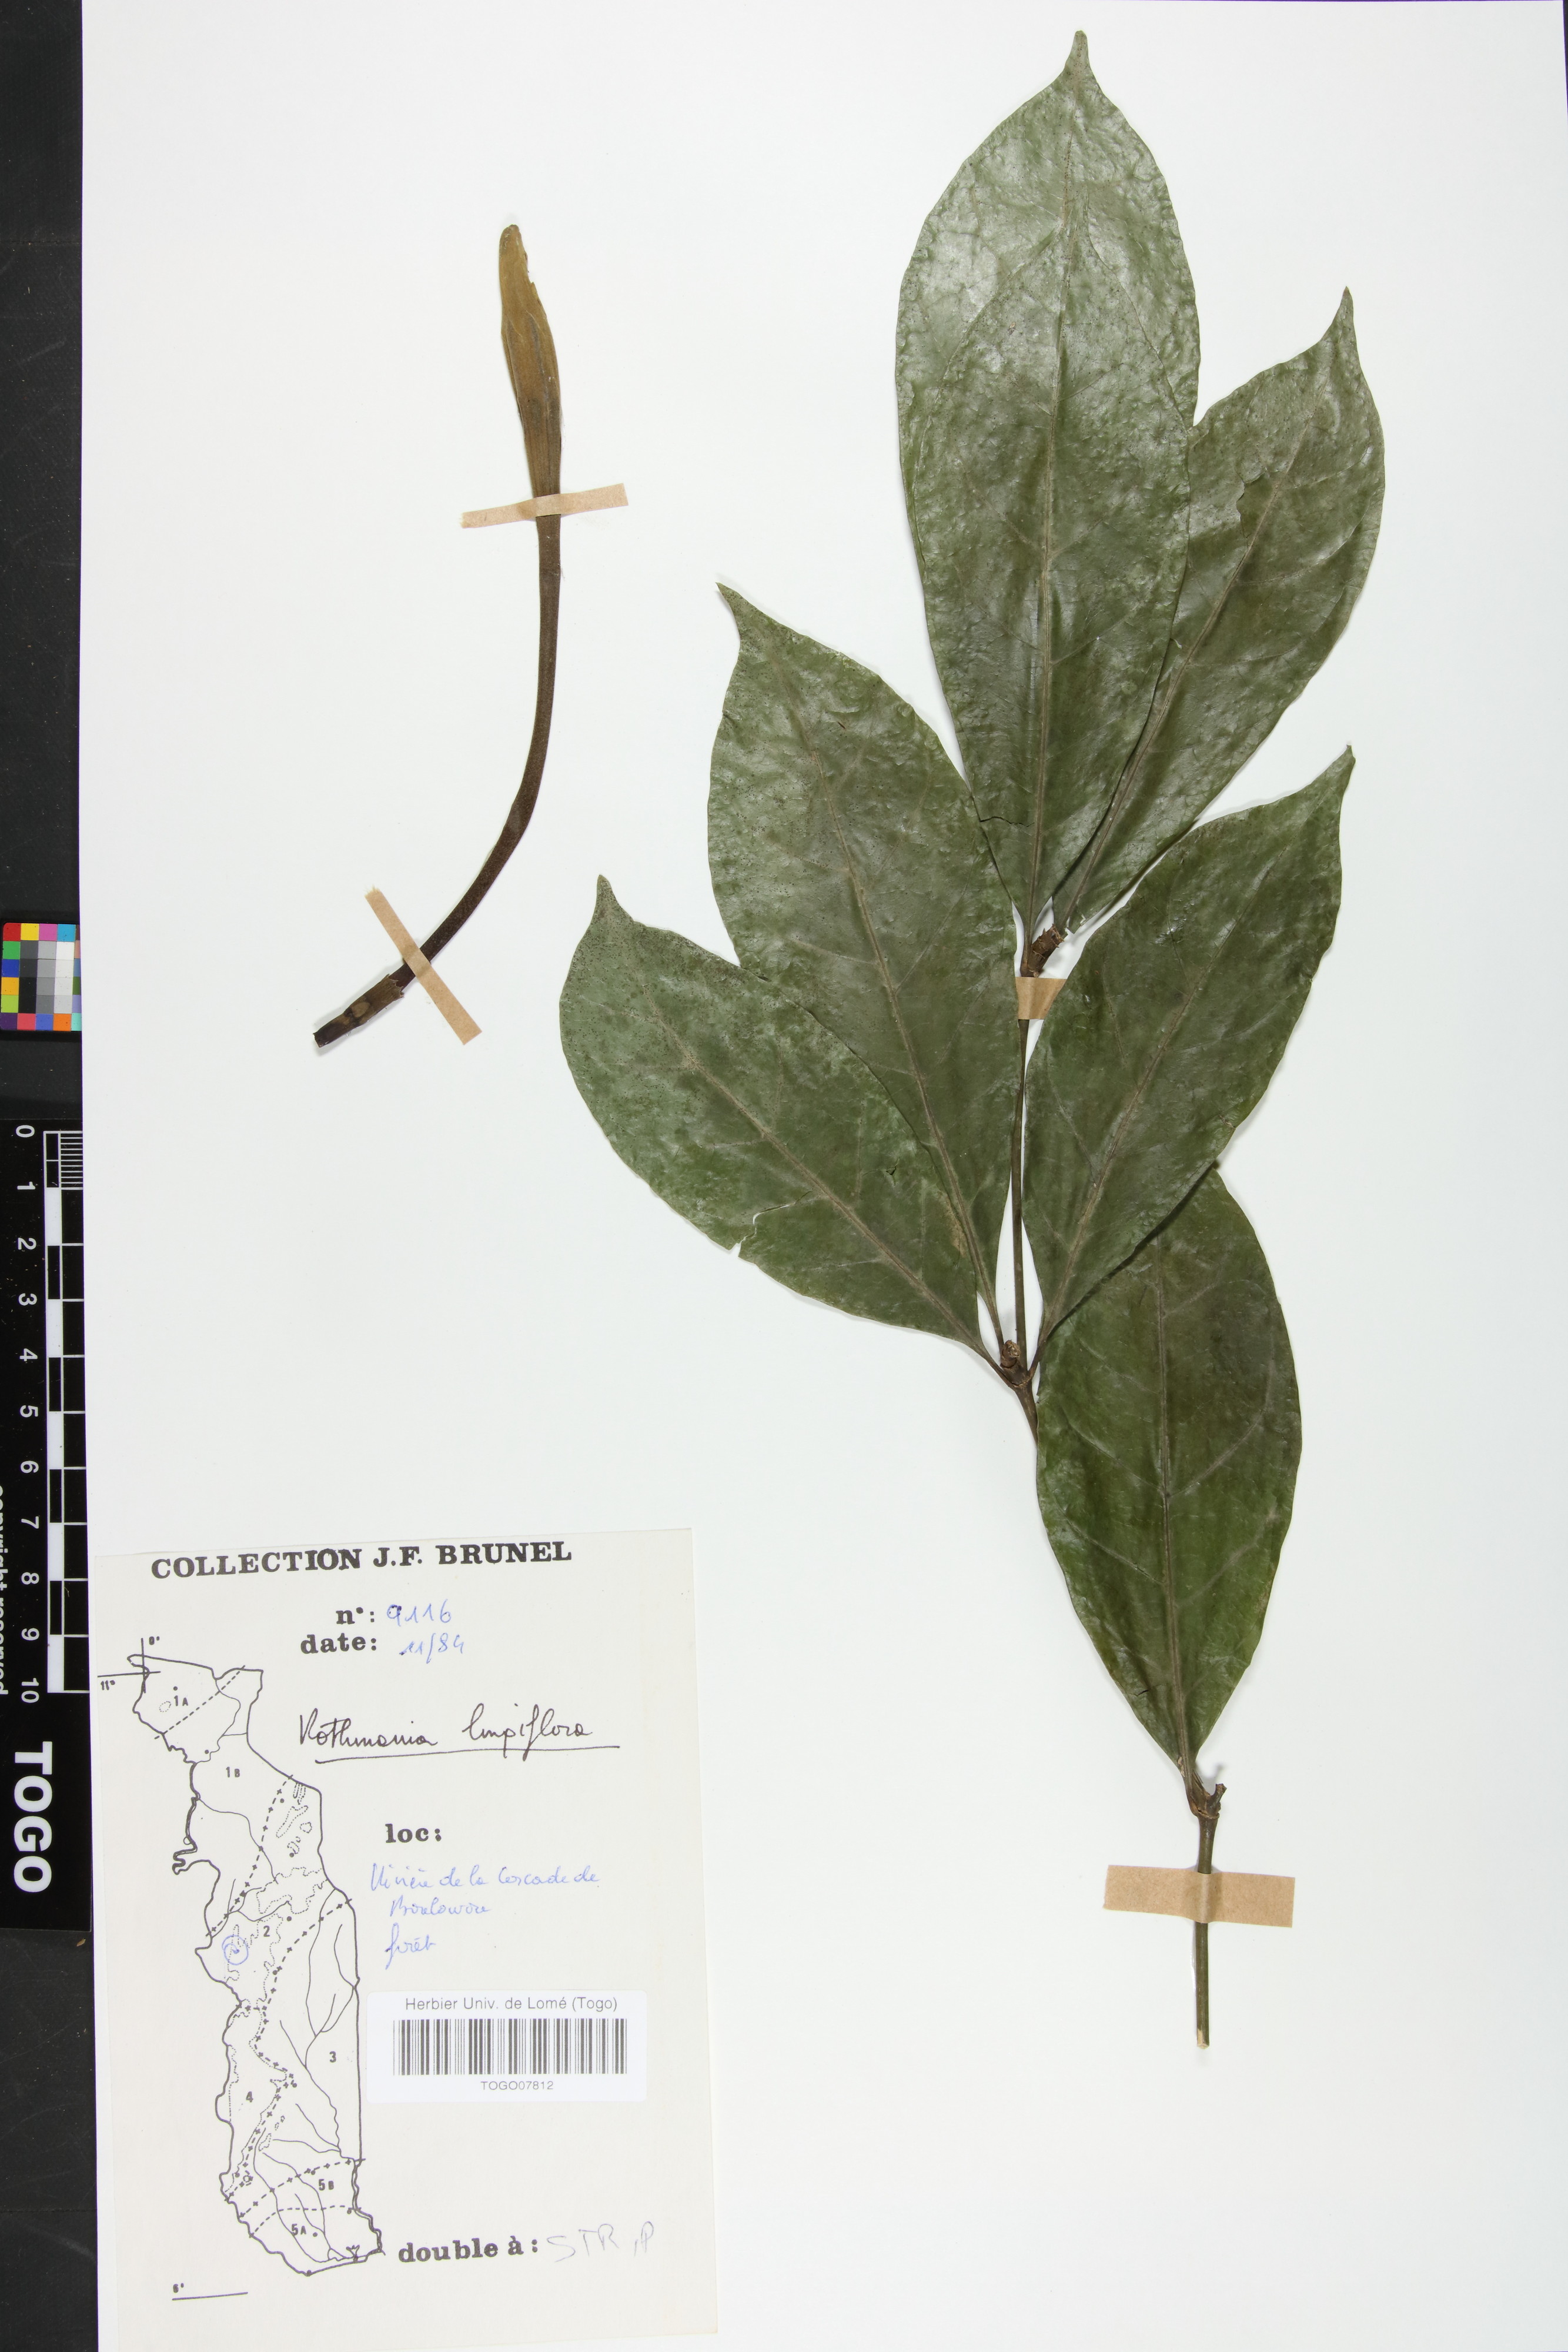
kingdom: Plantae
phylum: Tracheophyta
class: Magnoliopsida
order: Gentianales
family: Rubiaceae
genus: Rothmannia
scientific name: Rothmannia longiflora
